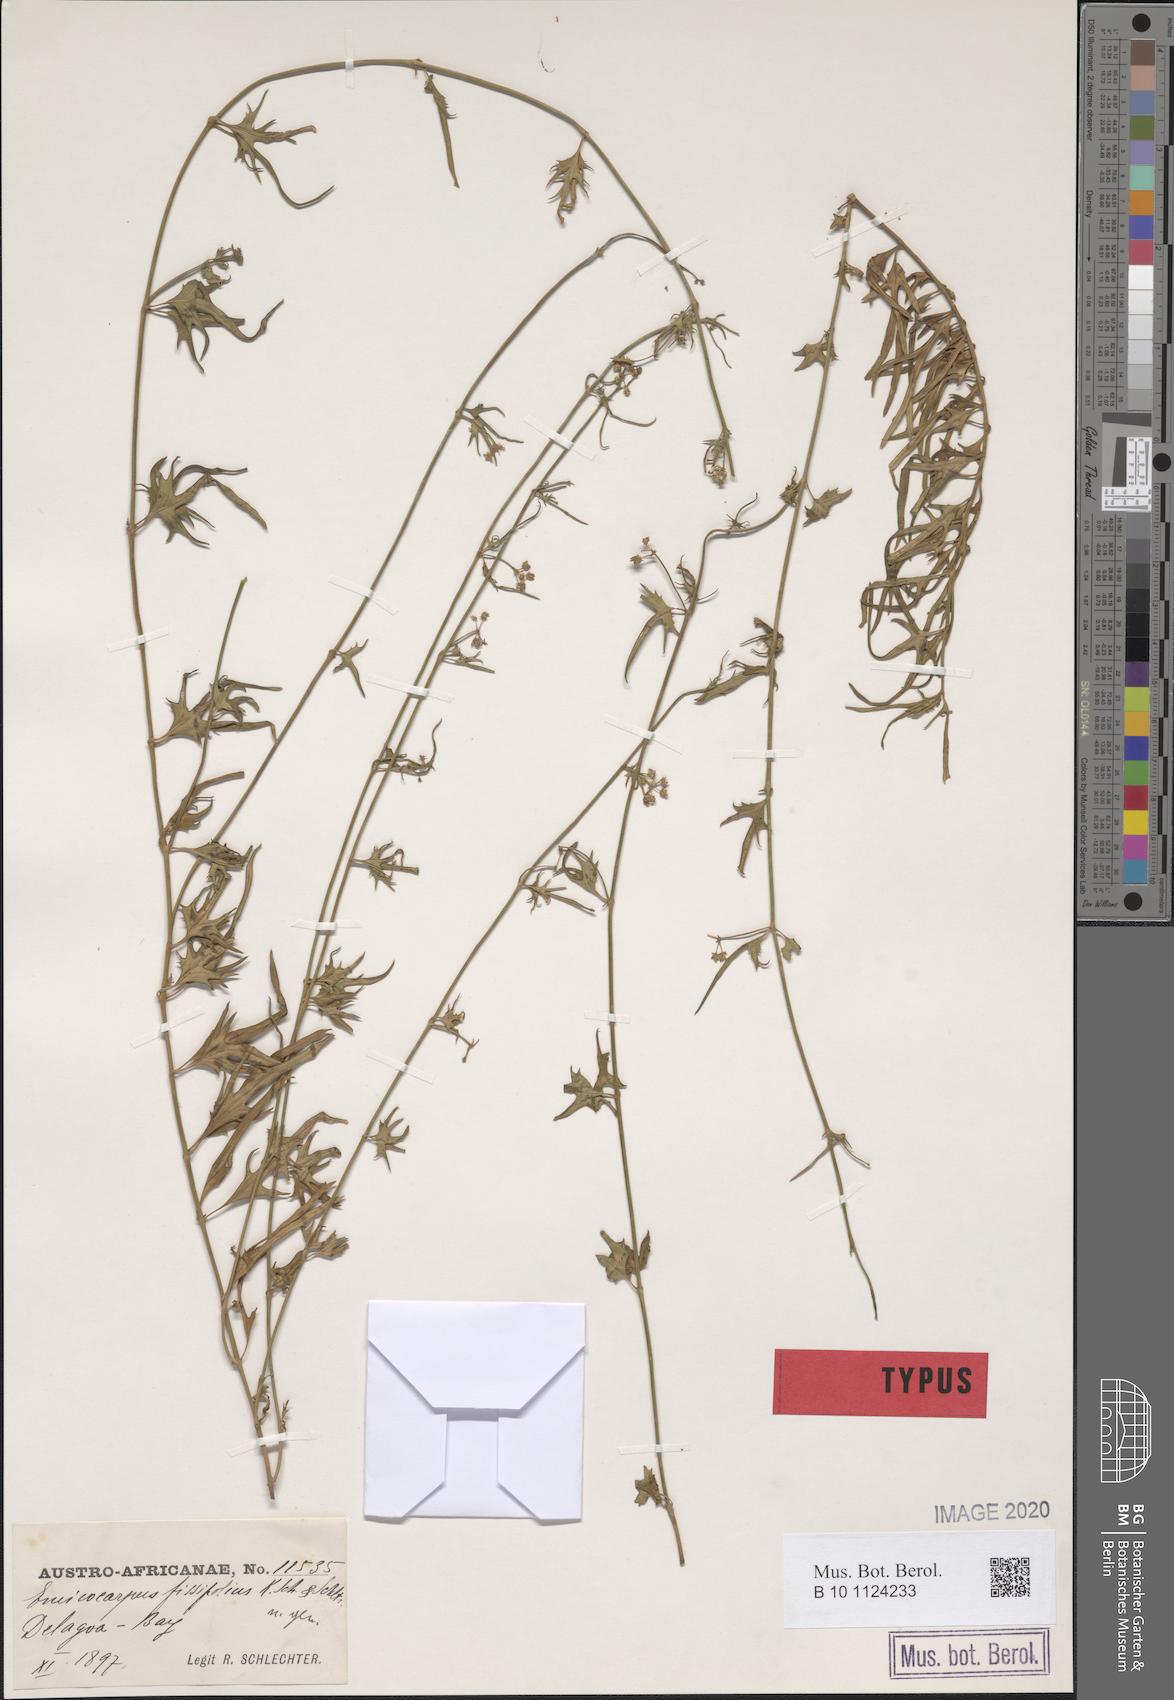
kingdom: Plantae
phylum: Tracheophyta
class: Magnoliopsida
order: Gentianales
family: Apocynaceae
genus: Emicocarpus
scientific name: Emicocarpus fissifolius
